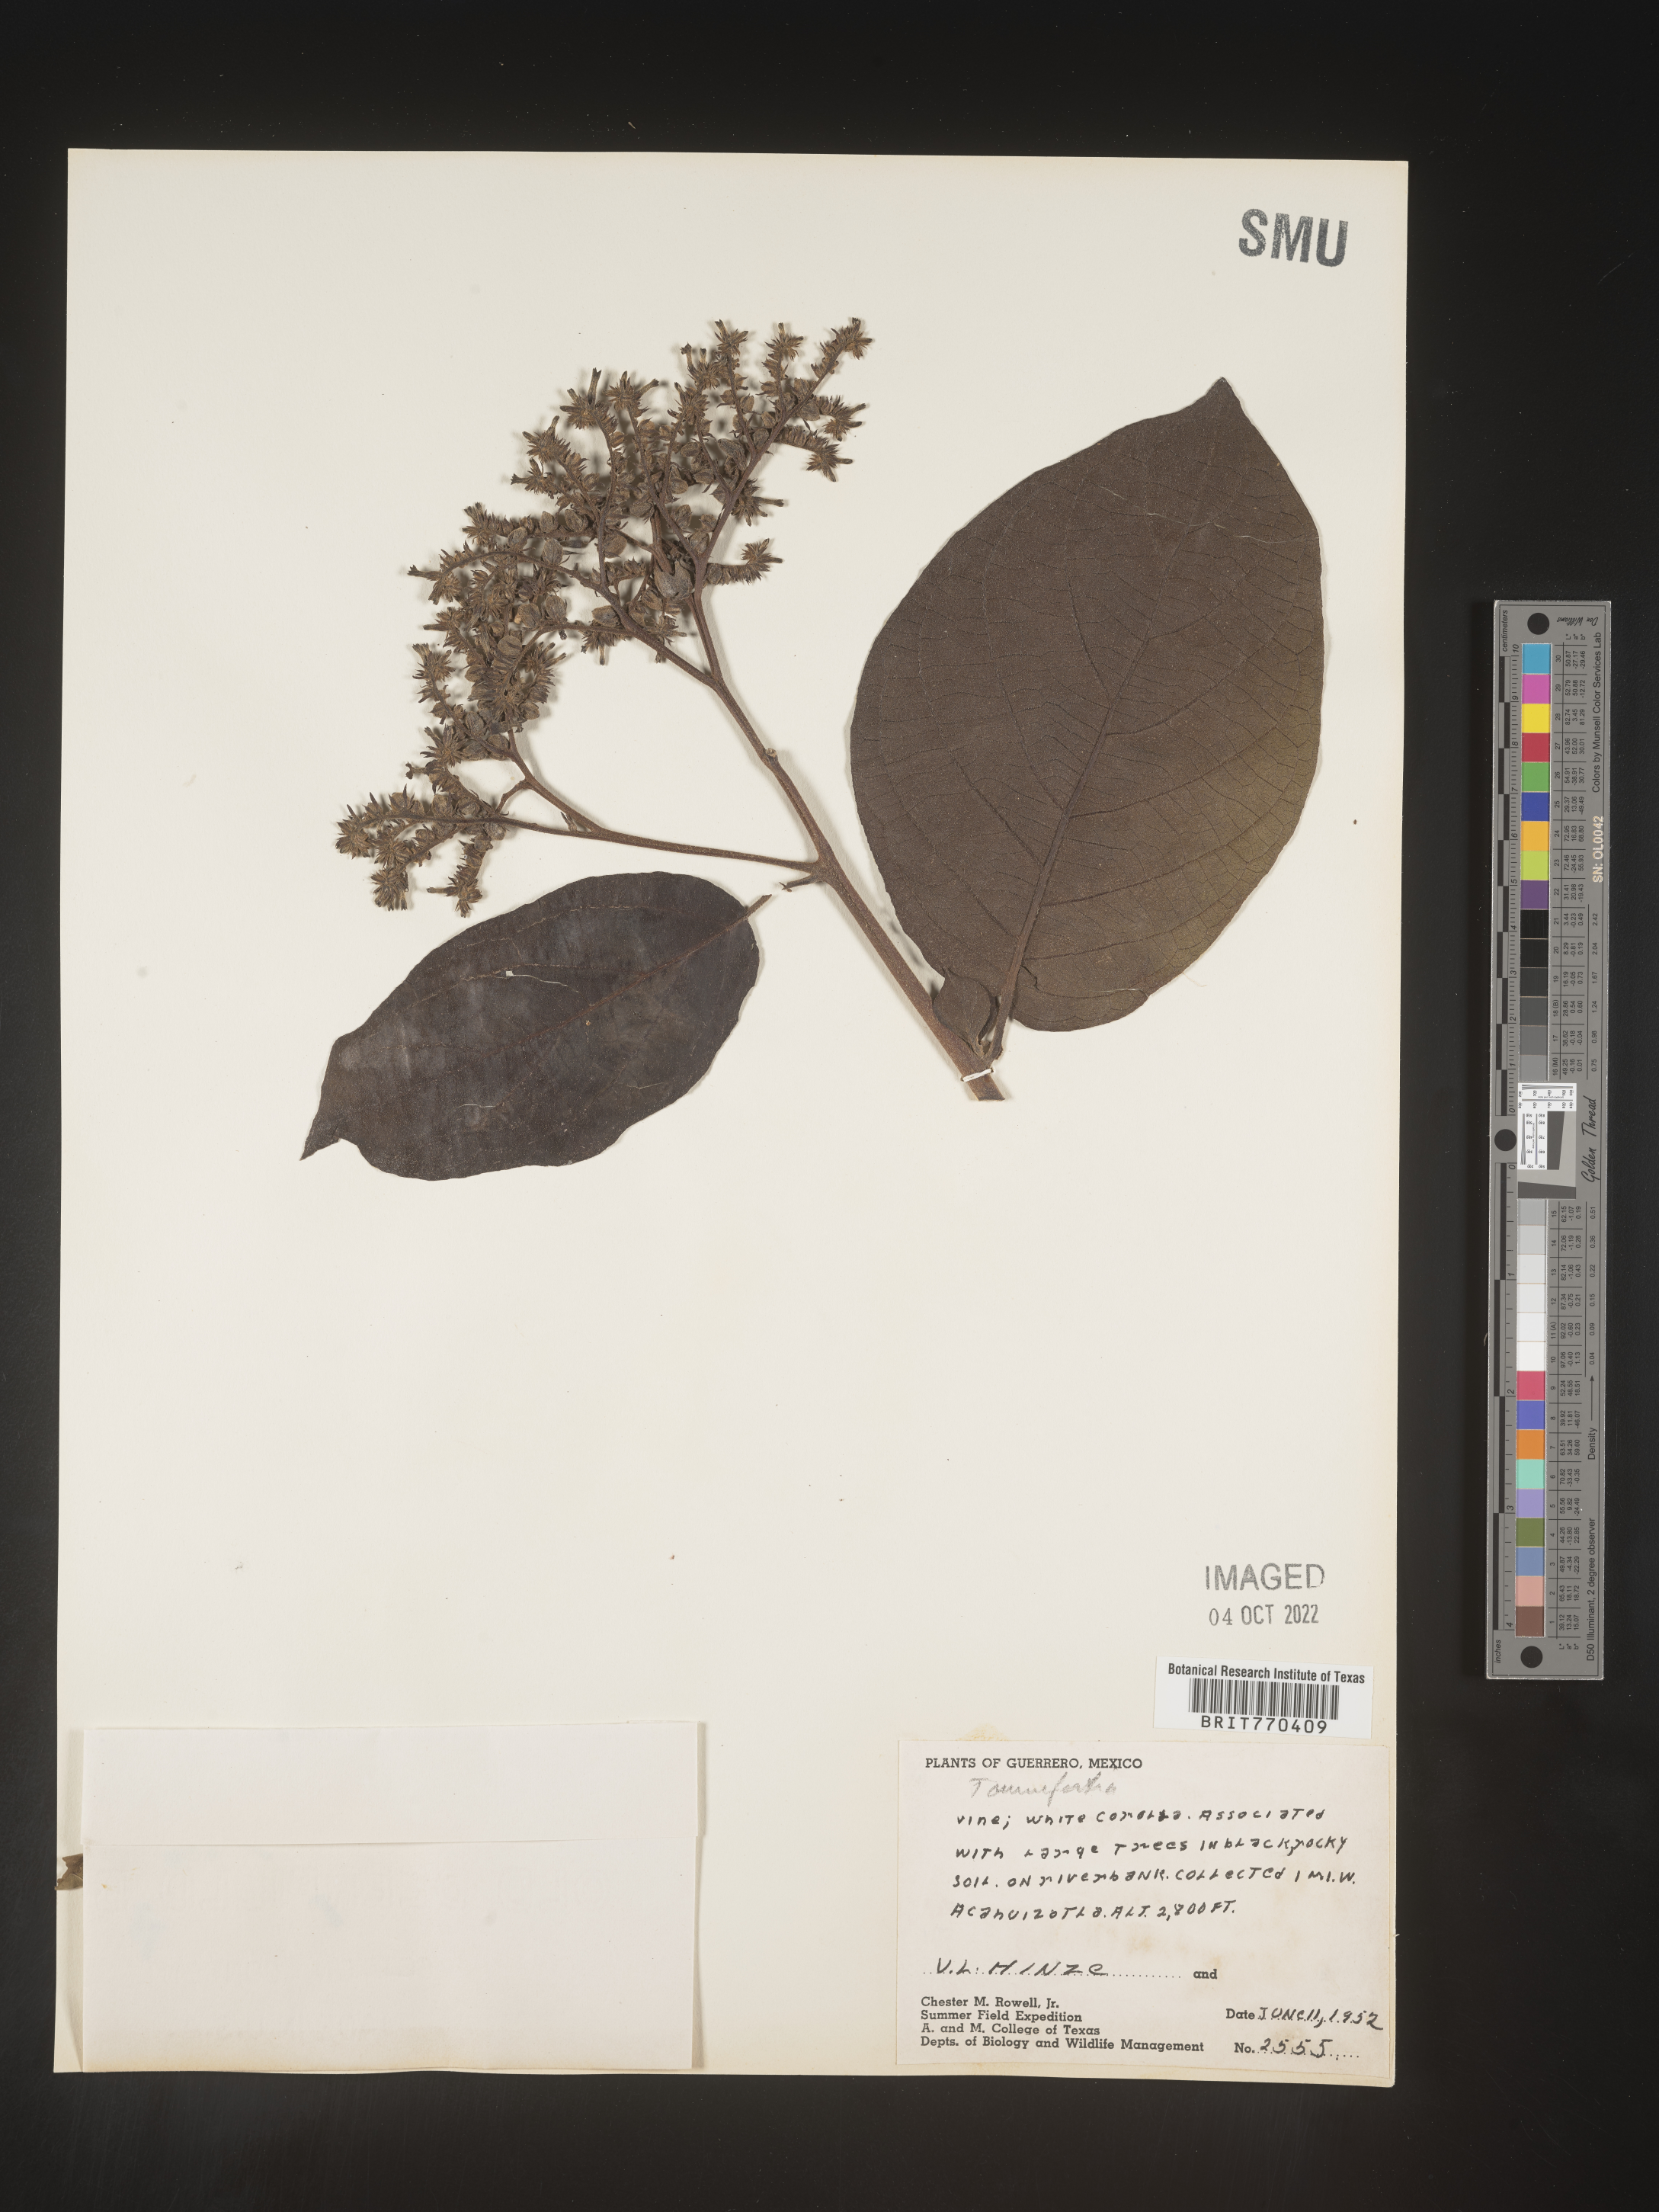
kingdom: Plantae
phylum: Tracheophyta
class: Magnoliopsida
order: Boraginales
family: Heliotropiaceae
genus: Tournefortia
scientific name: Tournefortia
